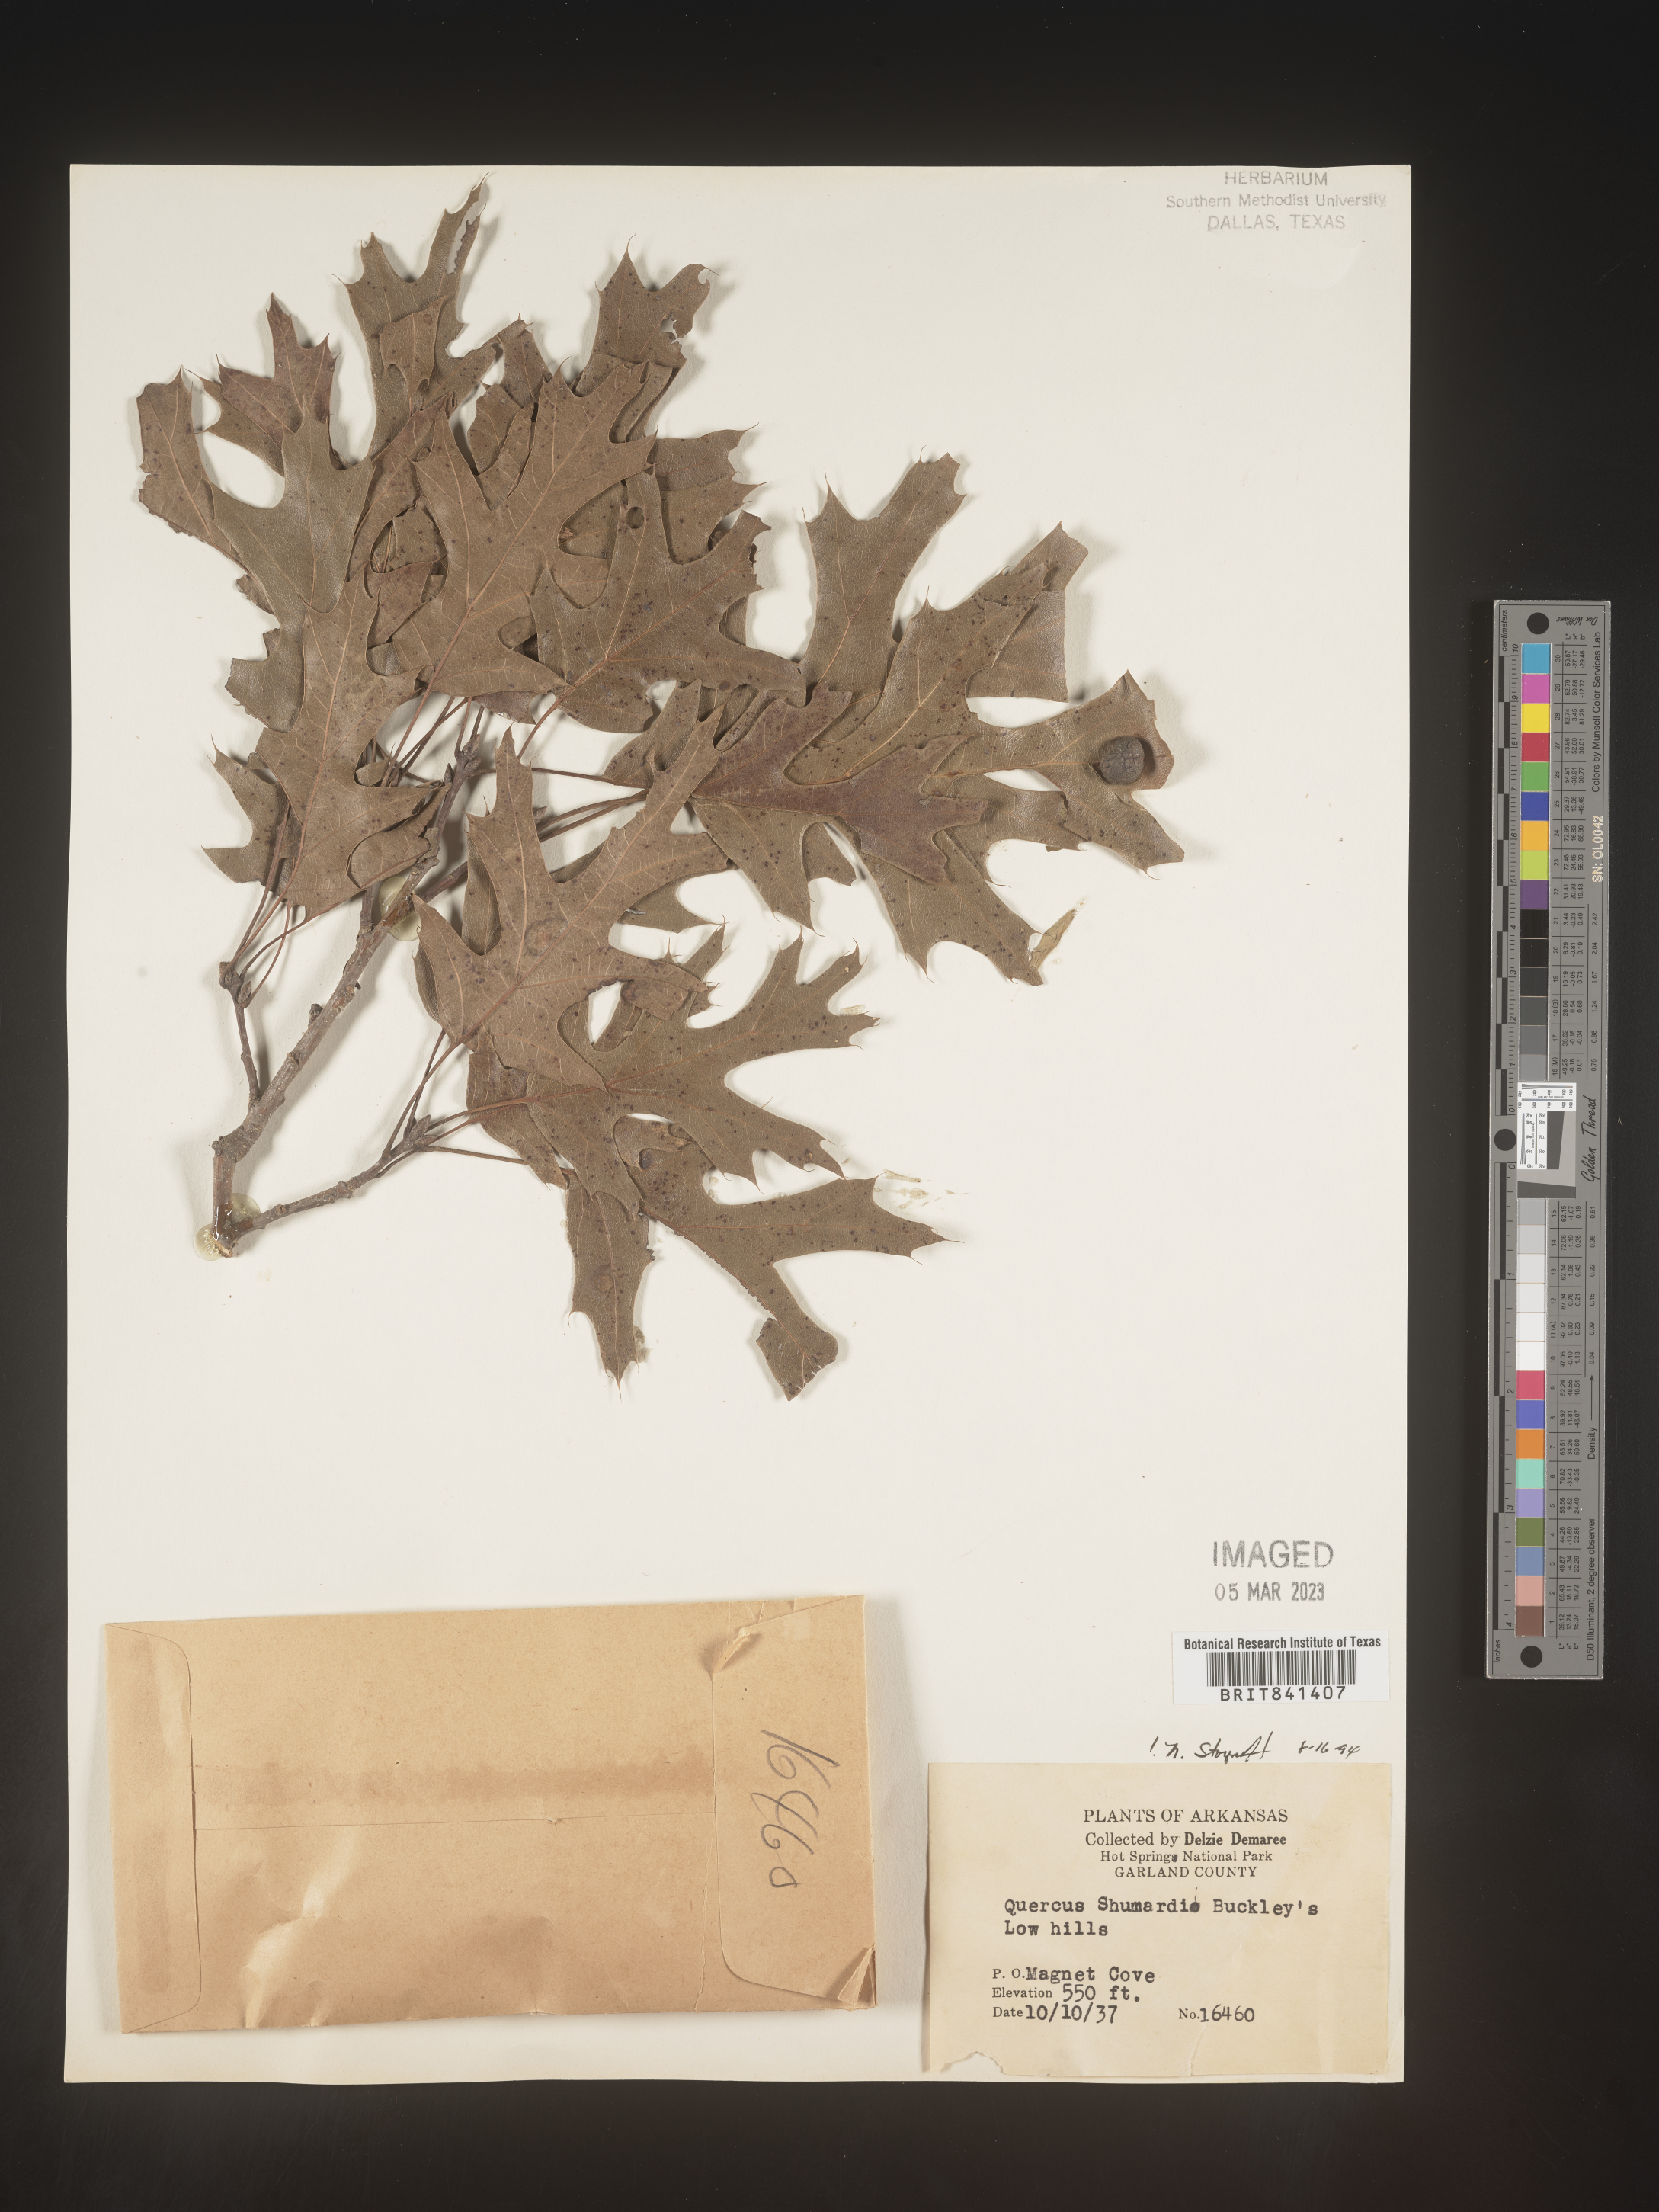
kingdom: Plantae
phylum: Tracheophyta
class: Magnoliopsida
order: Fagales
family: Fagaceae
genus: Quercus
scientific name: Quercus shumardii
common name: Shumard oak
